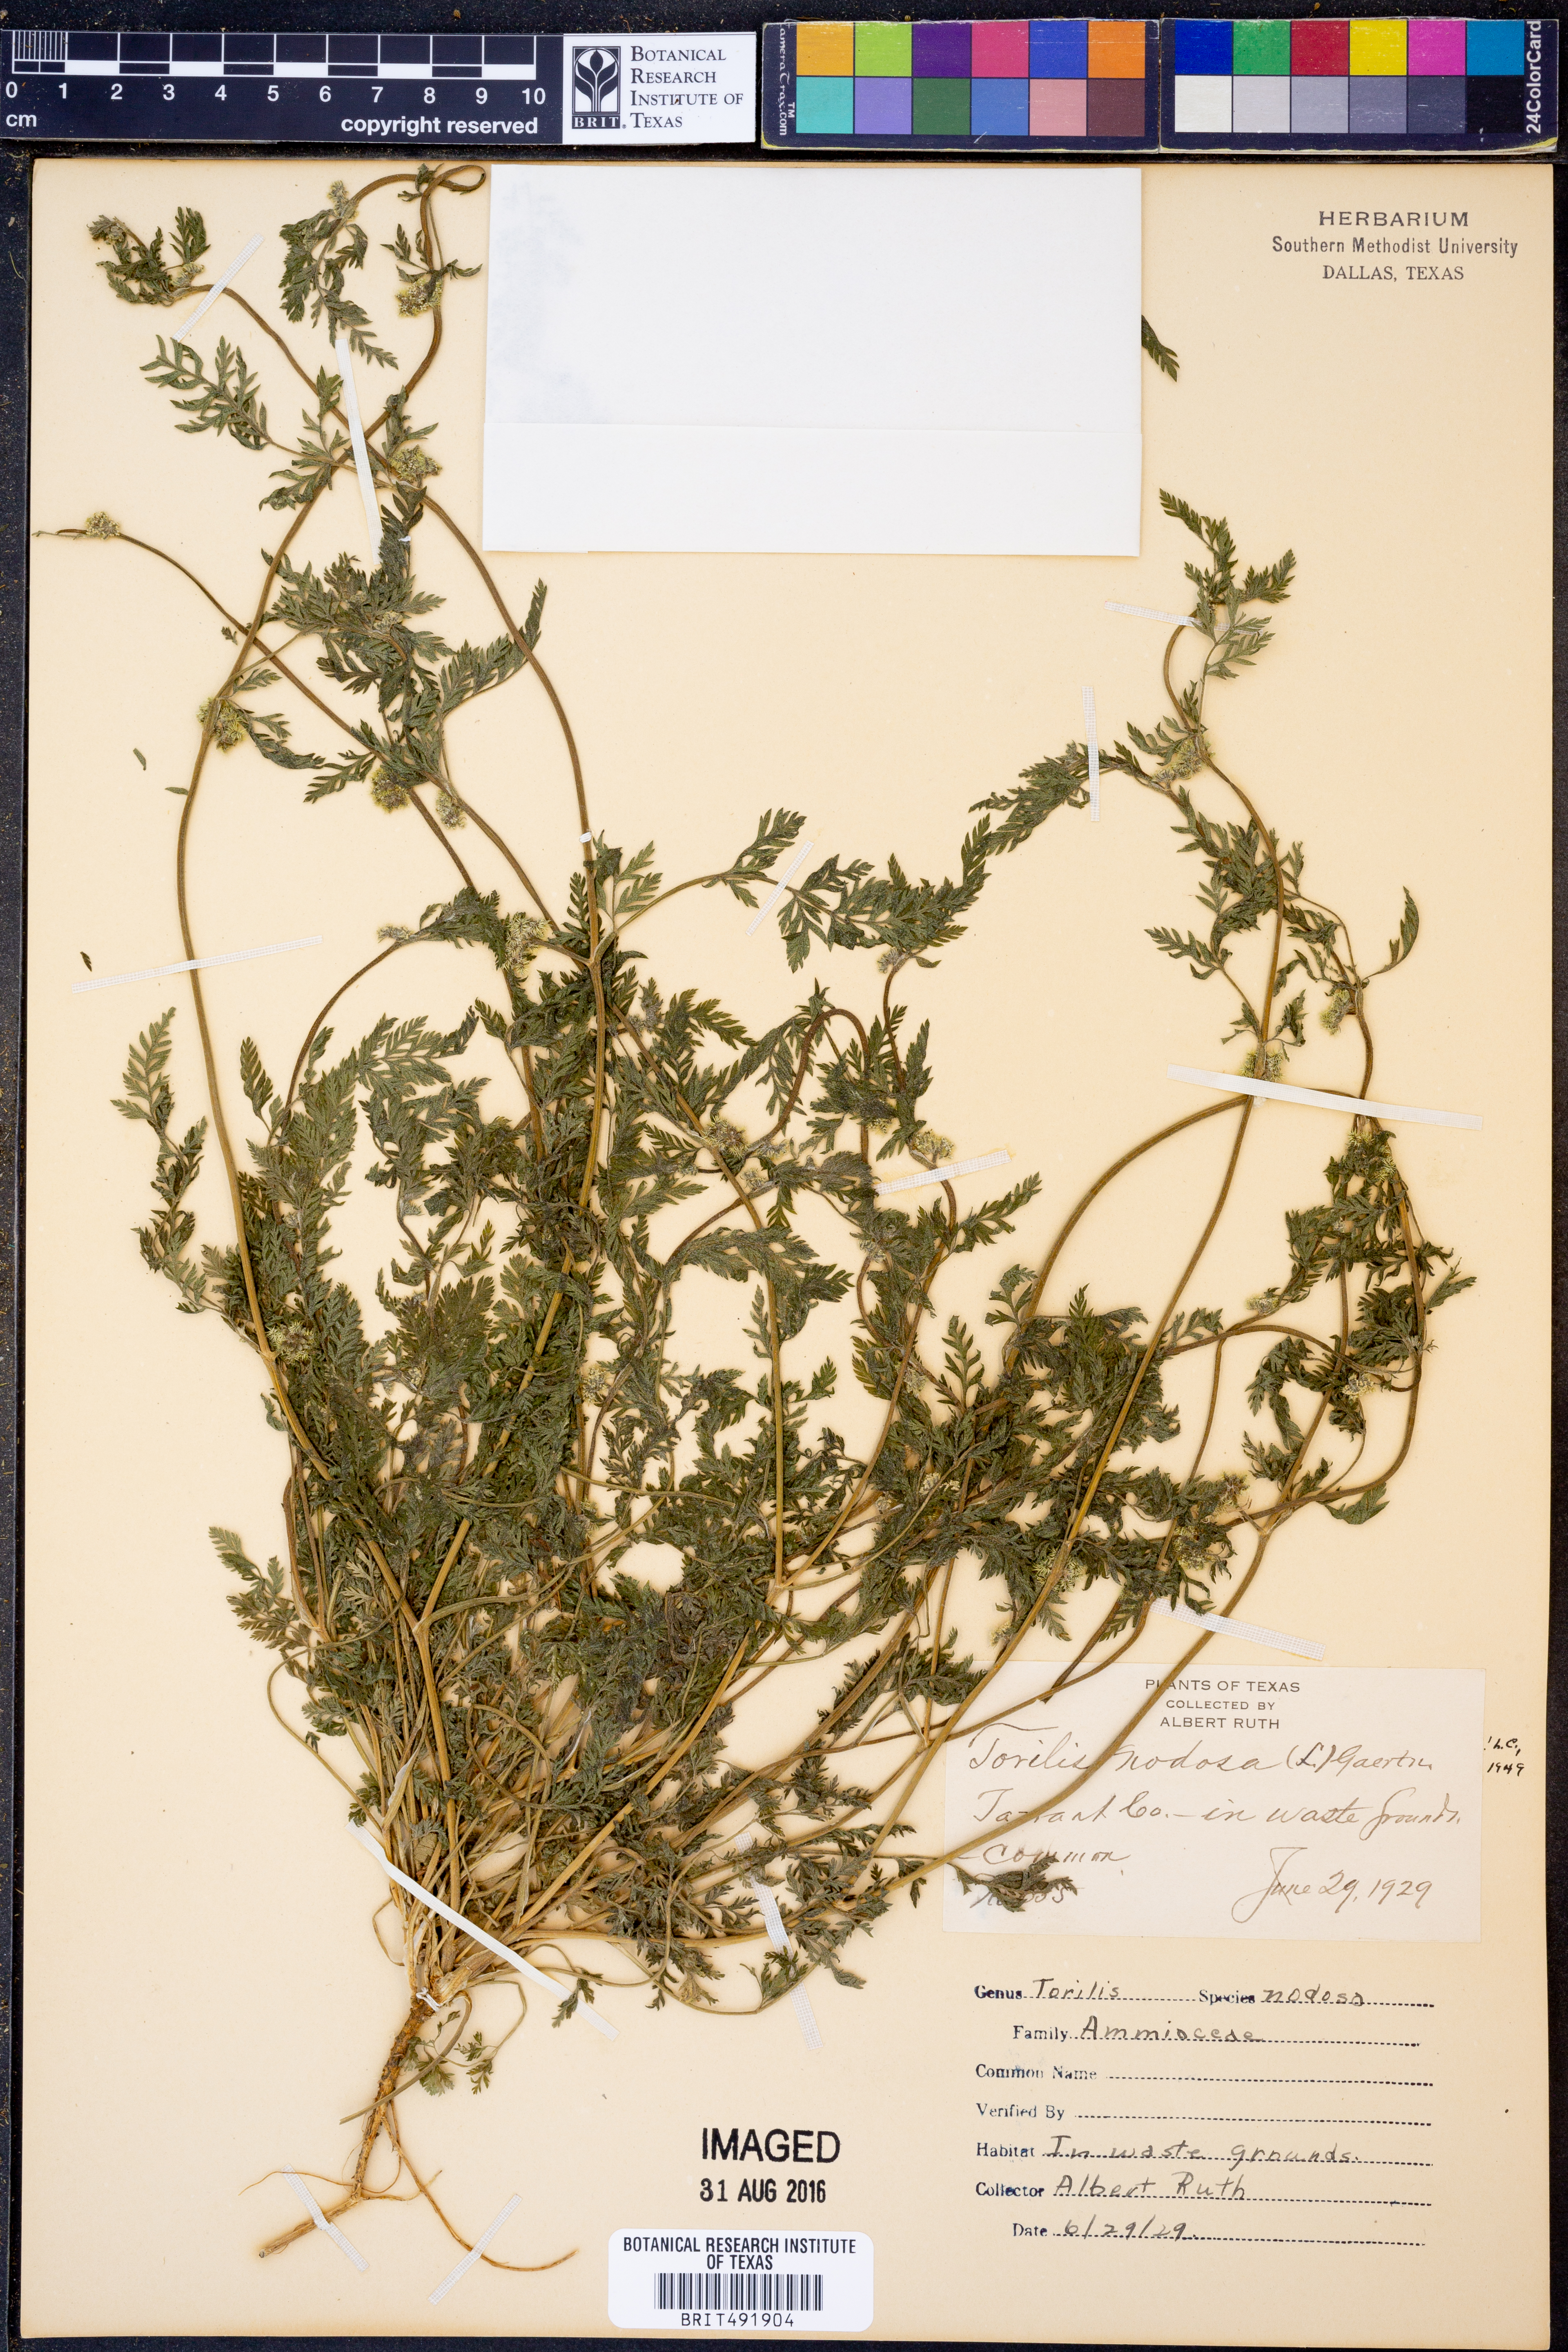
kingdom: Plantae
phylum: Tracheophyta
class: Magnoliopsida
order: Apiales
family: Apiaceae
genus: Torilis
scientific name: Torilis nodosa
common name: Knotted hedge-parsley
